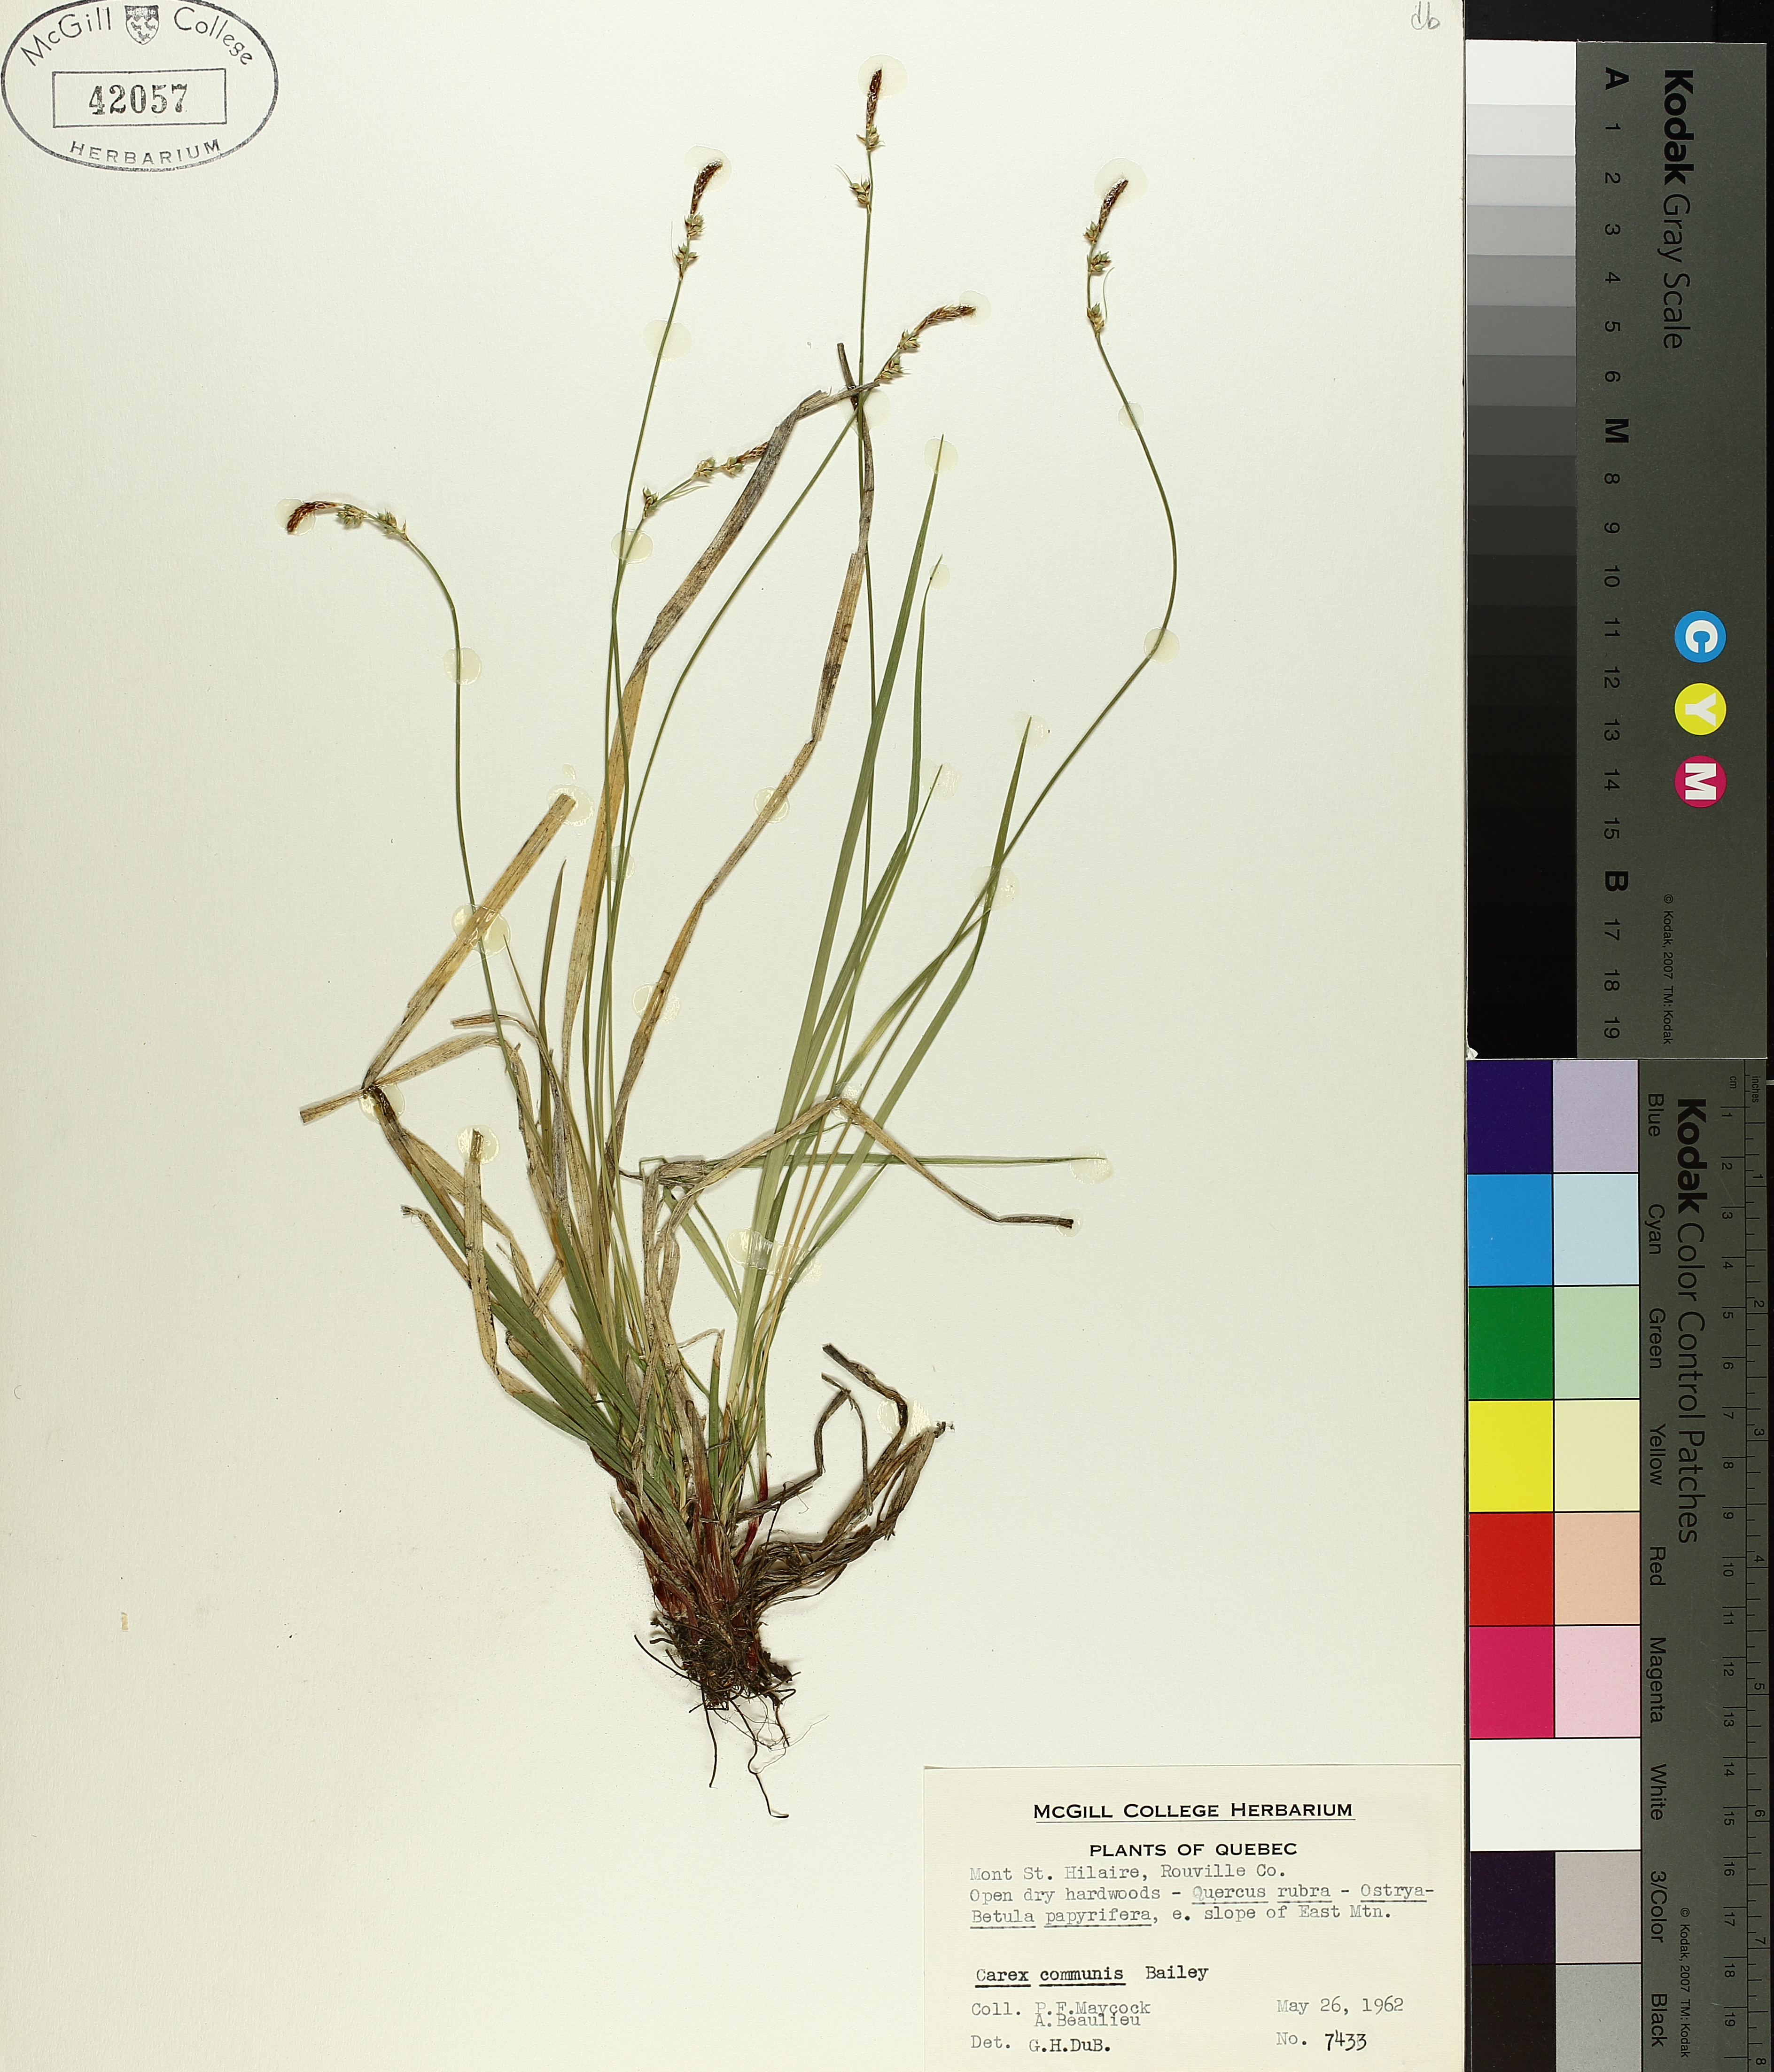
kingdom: Plantae
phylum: Tracheophyta
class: Liliopsida
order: Poales
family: Cyperaceae
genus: Carex
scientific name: Carex communis
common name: Colonial oak sedge
